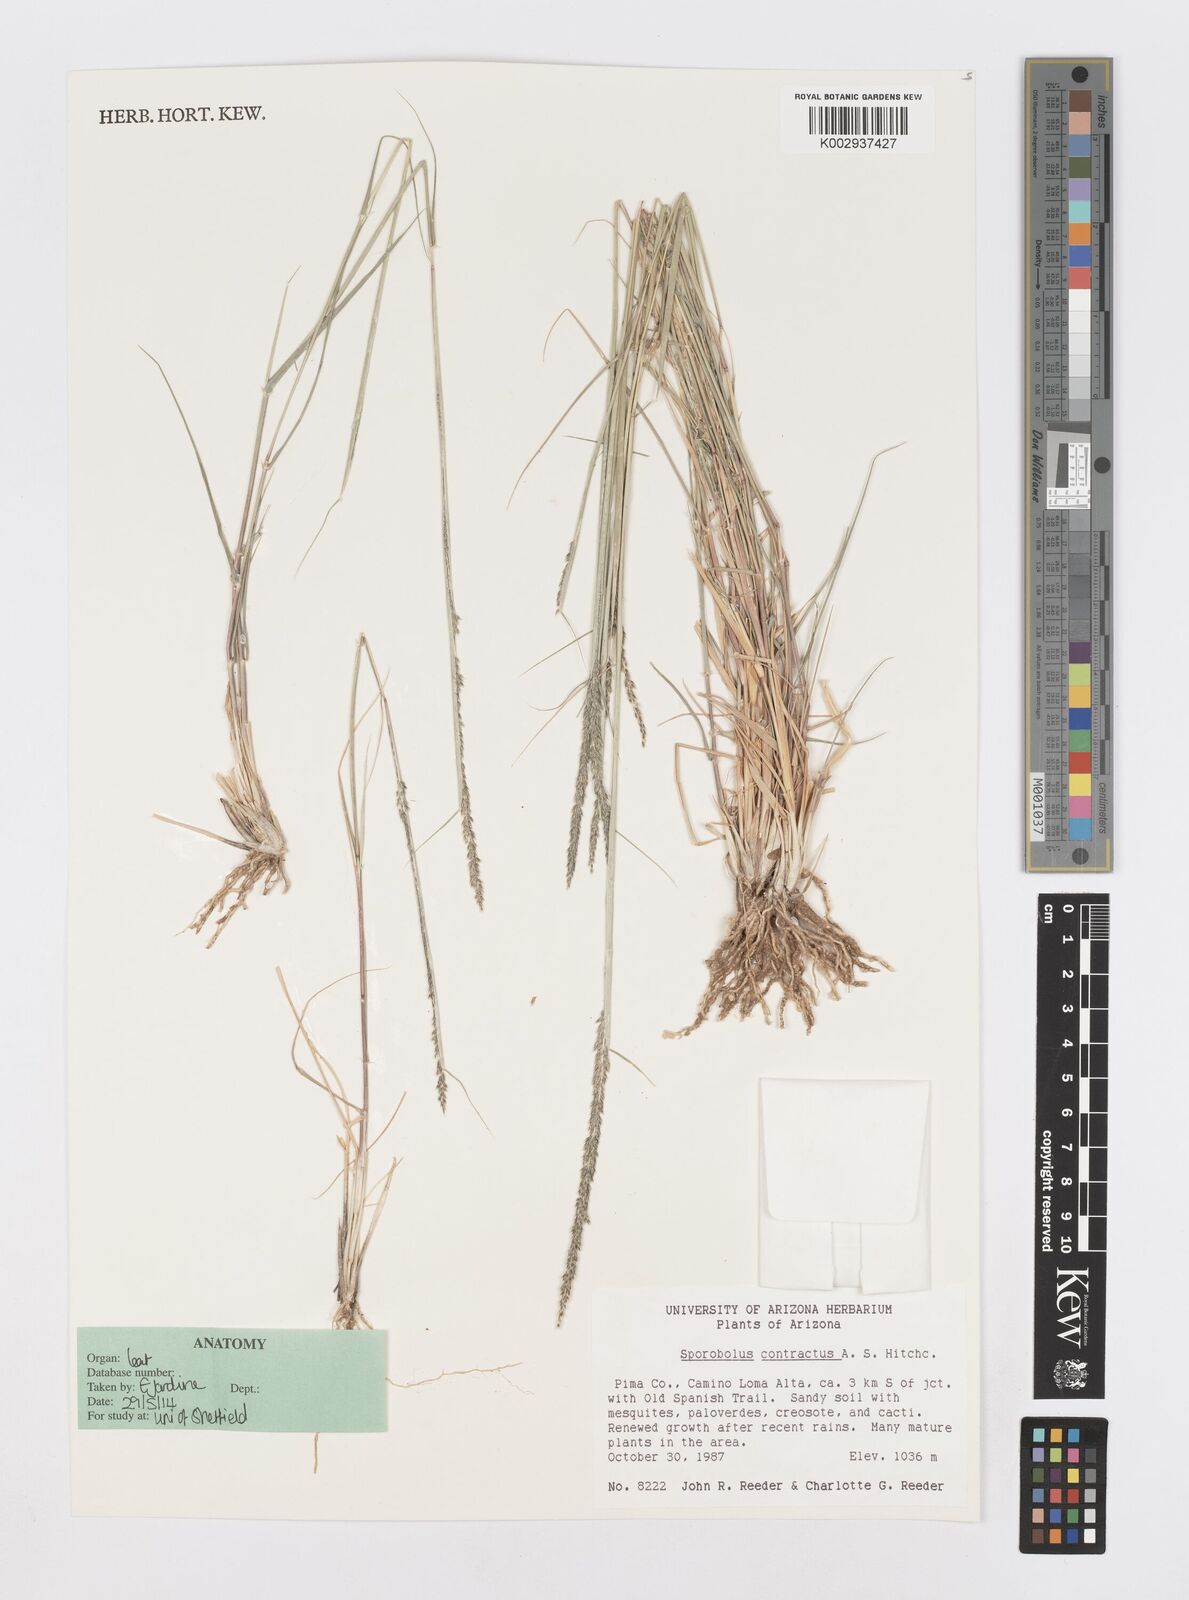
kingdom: Plantae
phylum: Tracheophyta
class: Liliopsida
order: Poales
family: Poaceae
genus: Sporobolus
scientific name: Sporobolus contractus
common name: Spike dropseed
